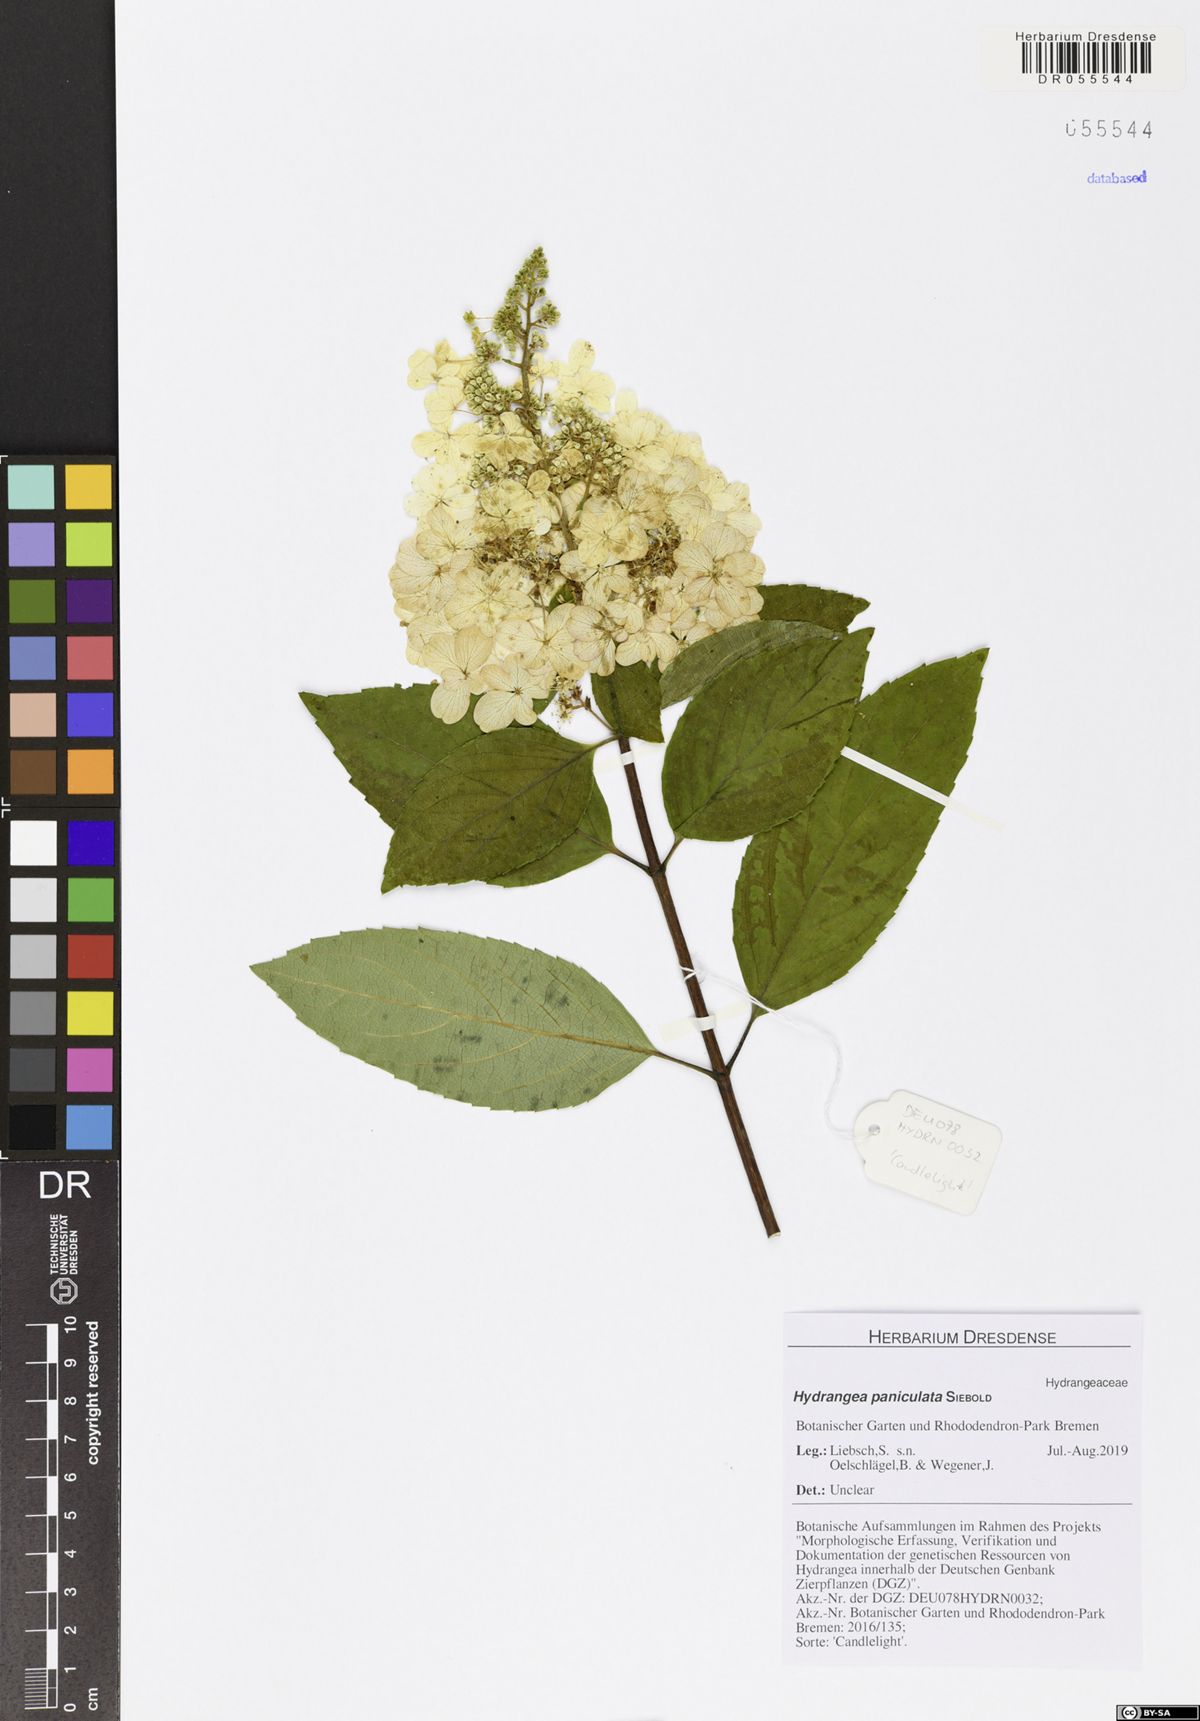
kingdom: Plantae
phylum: Tracheophyta
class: Magnoliopsida
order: Cornales
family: Hydrangeaceae
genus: Hydrangea
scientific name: Hydrangea paniculata
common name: Panicled hydrangea
